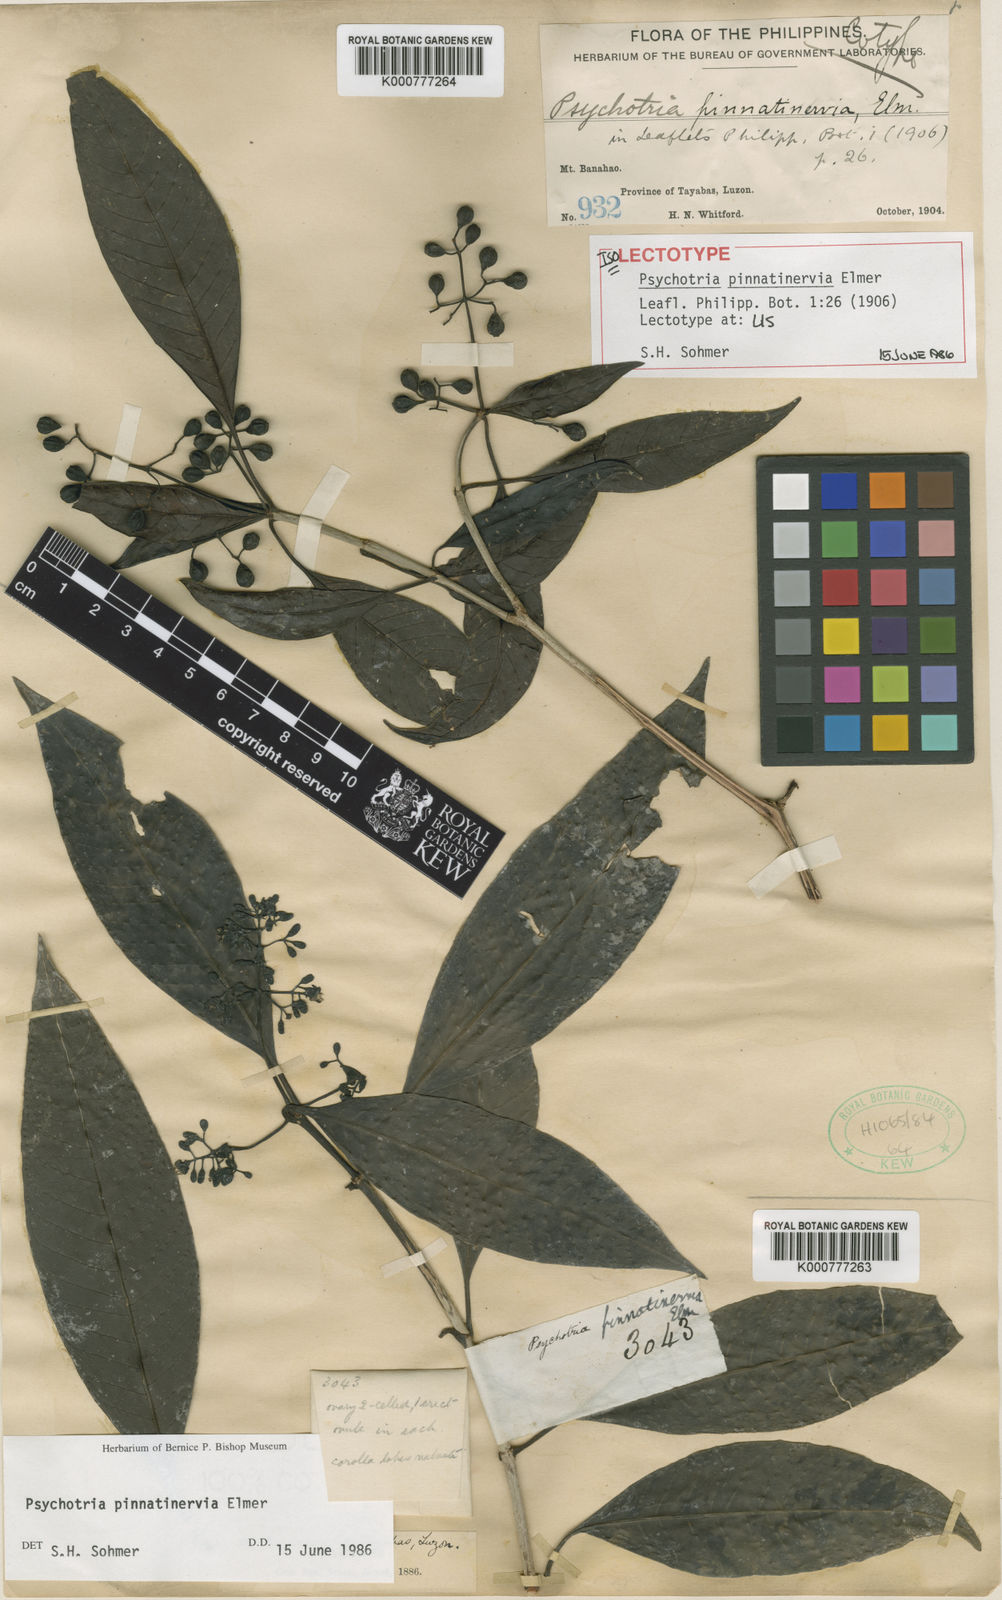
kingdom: Plantae
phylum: Tracheophyta
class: Magnoliopsida
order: Gentianales
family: Rubiaceae
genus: Psychotria
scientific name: Psychotria pinnatinervia
